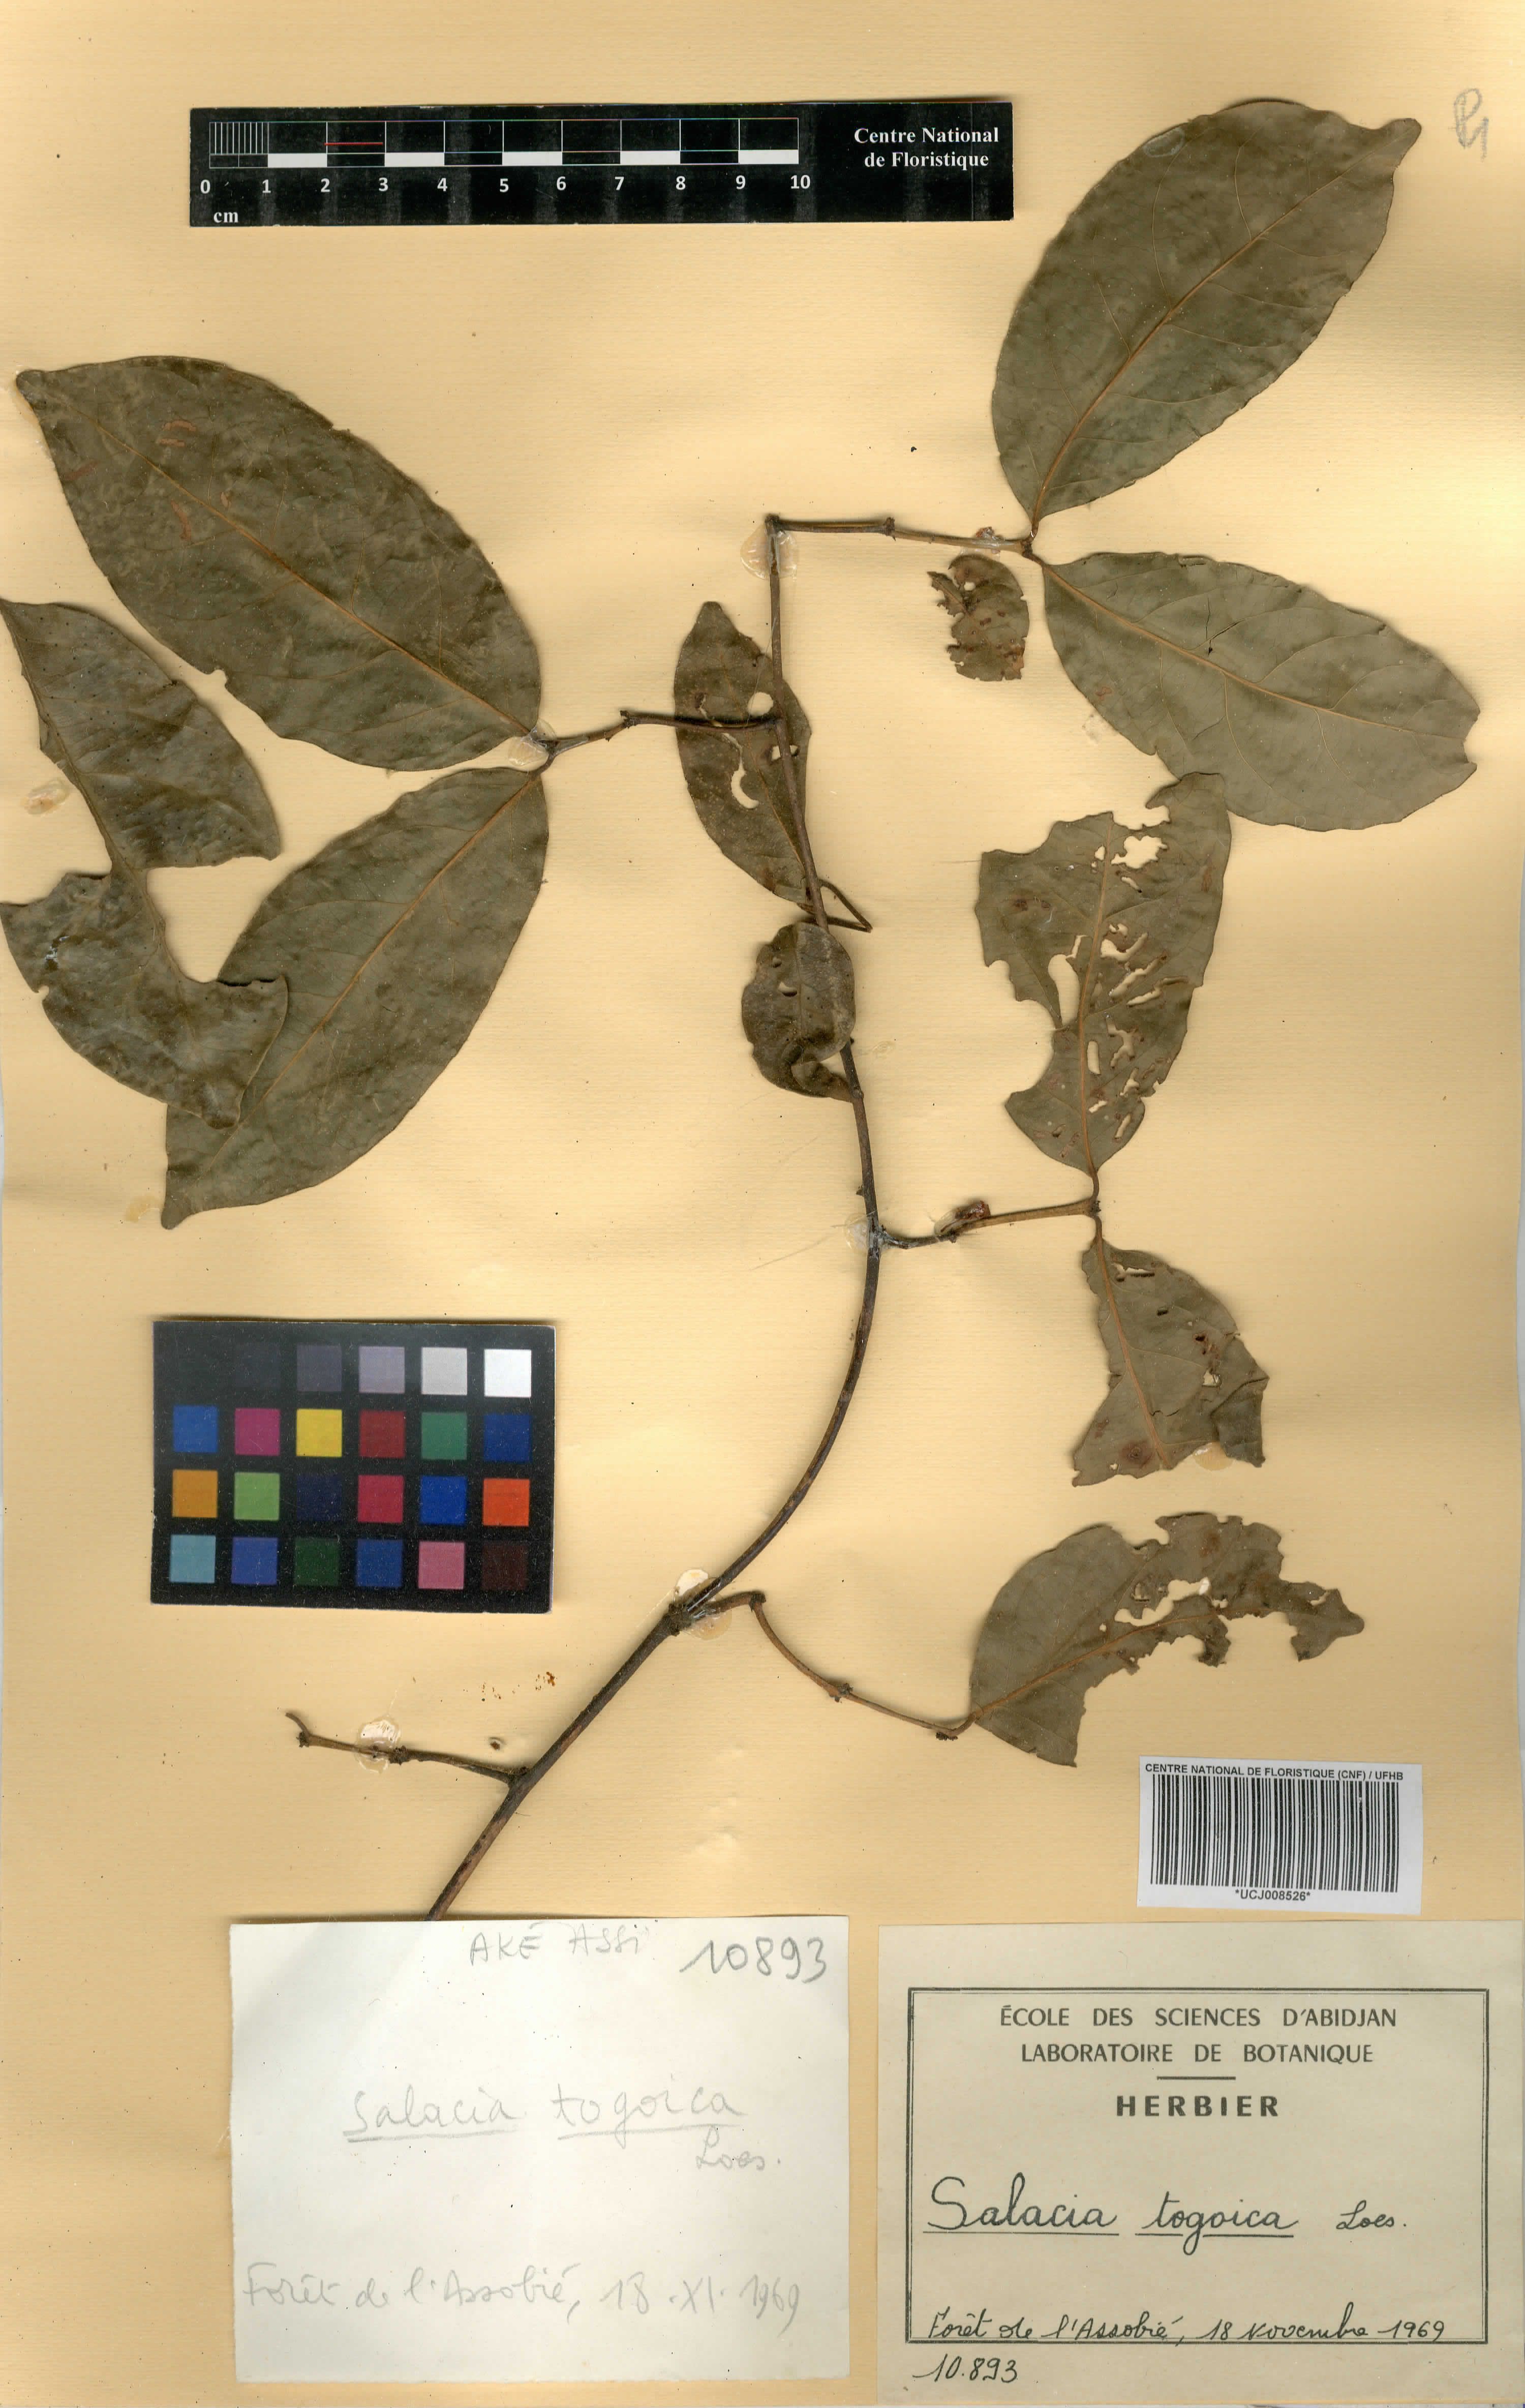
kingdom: Plantae
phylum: Tracheophyta
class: Magnoliopsida
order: Celastrales
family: Celastraceae
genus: Salacia
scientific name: Salacia togoica
